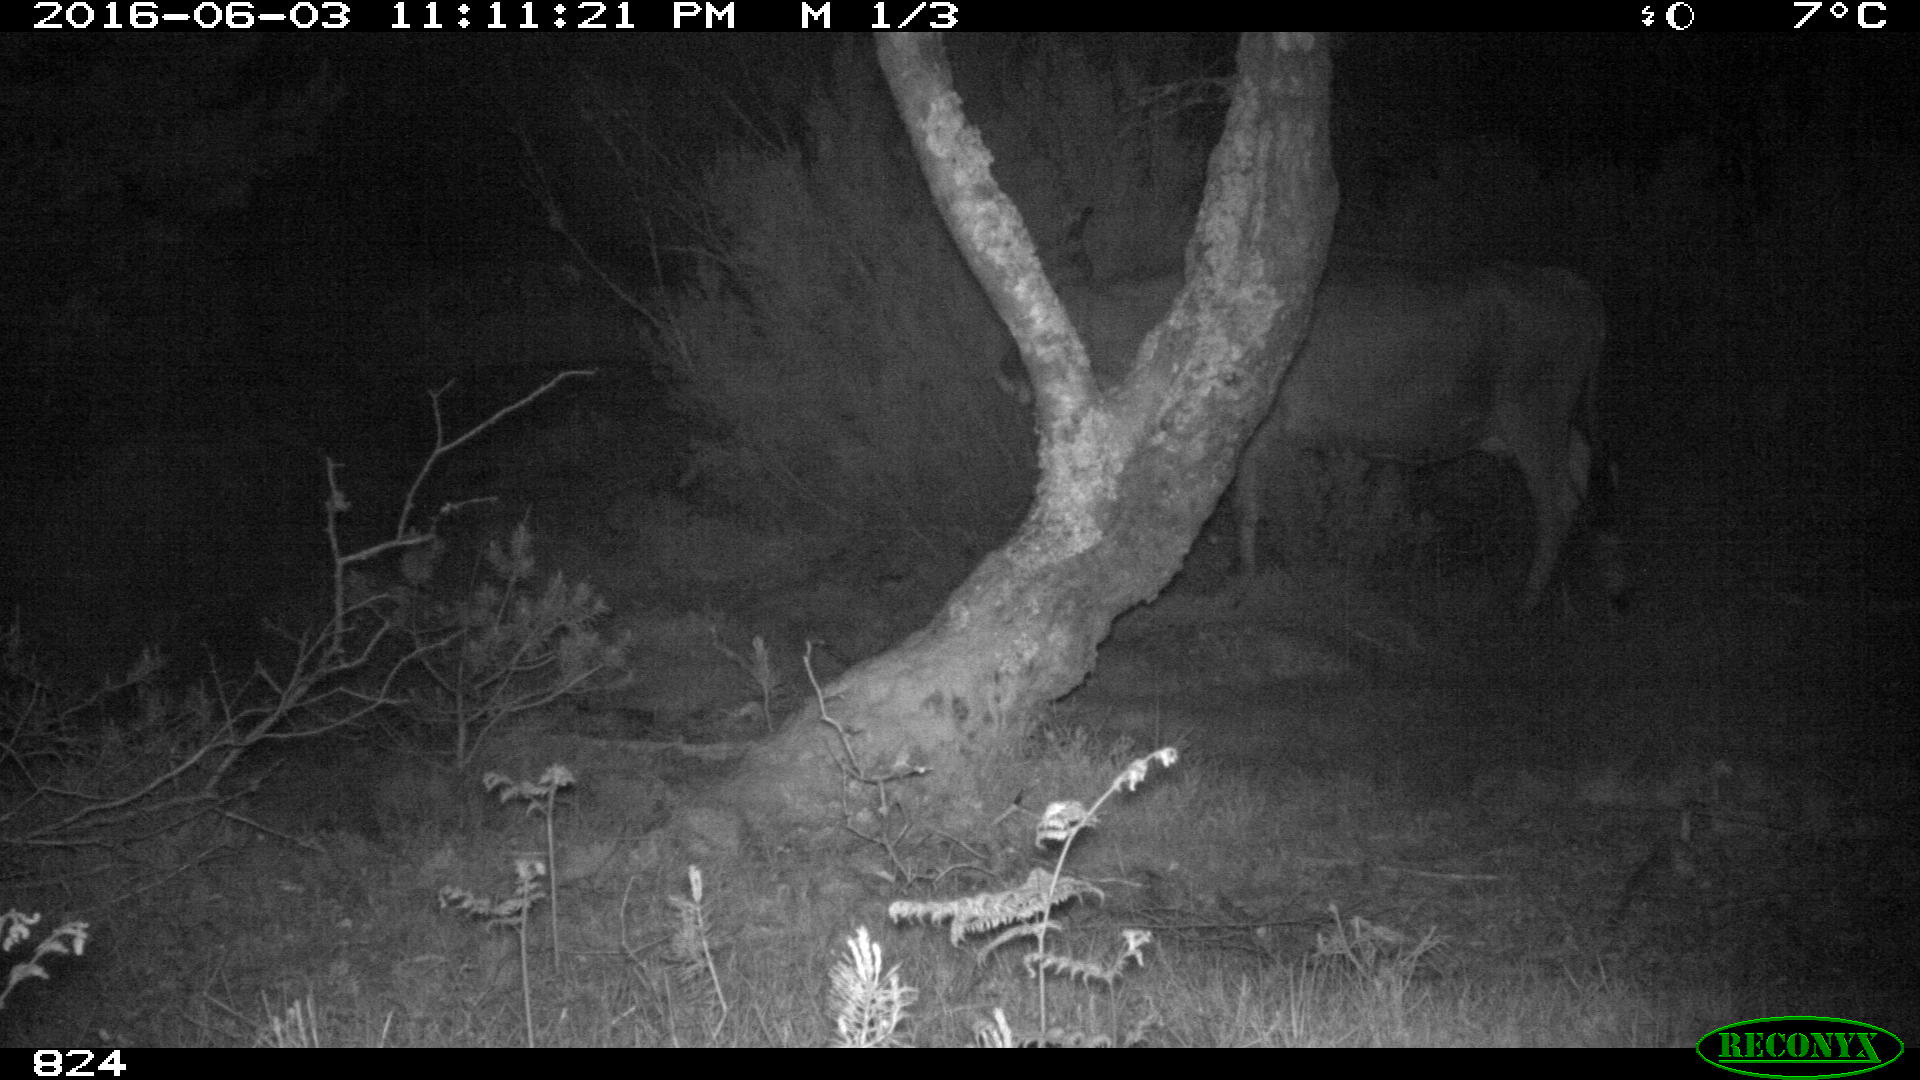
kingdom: Animalia
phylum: Chordata
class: Mammalia
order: Artiodactyla
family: Bovidae
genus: Bos
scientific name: Bos taurus
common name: Domesticated cattle
